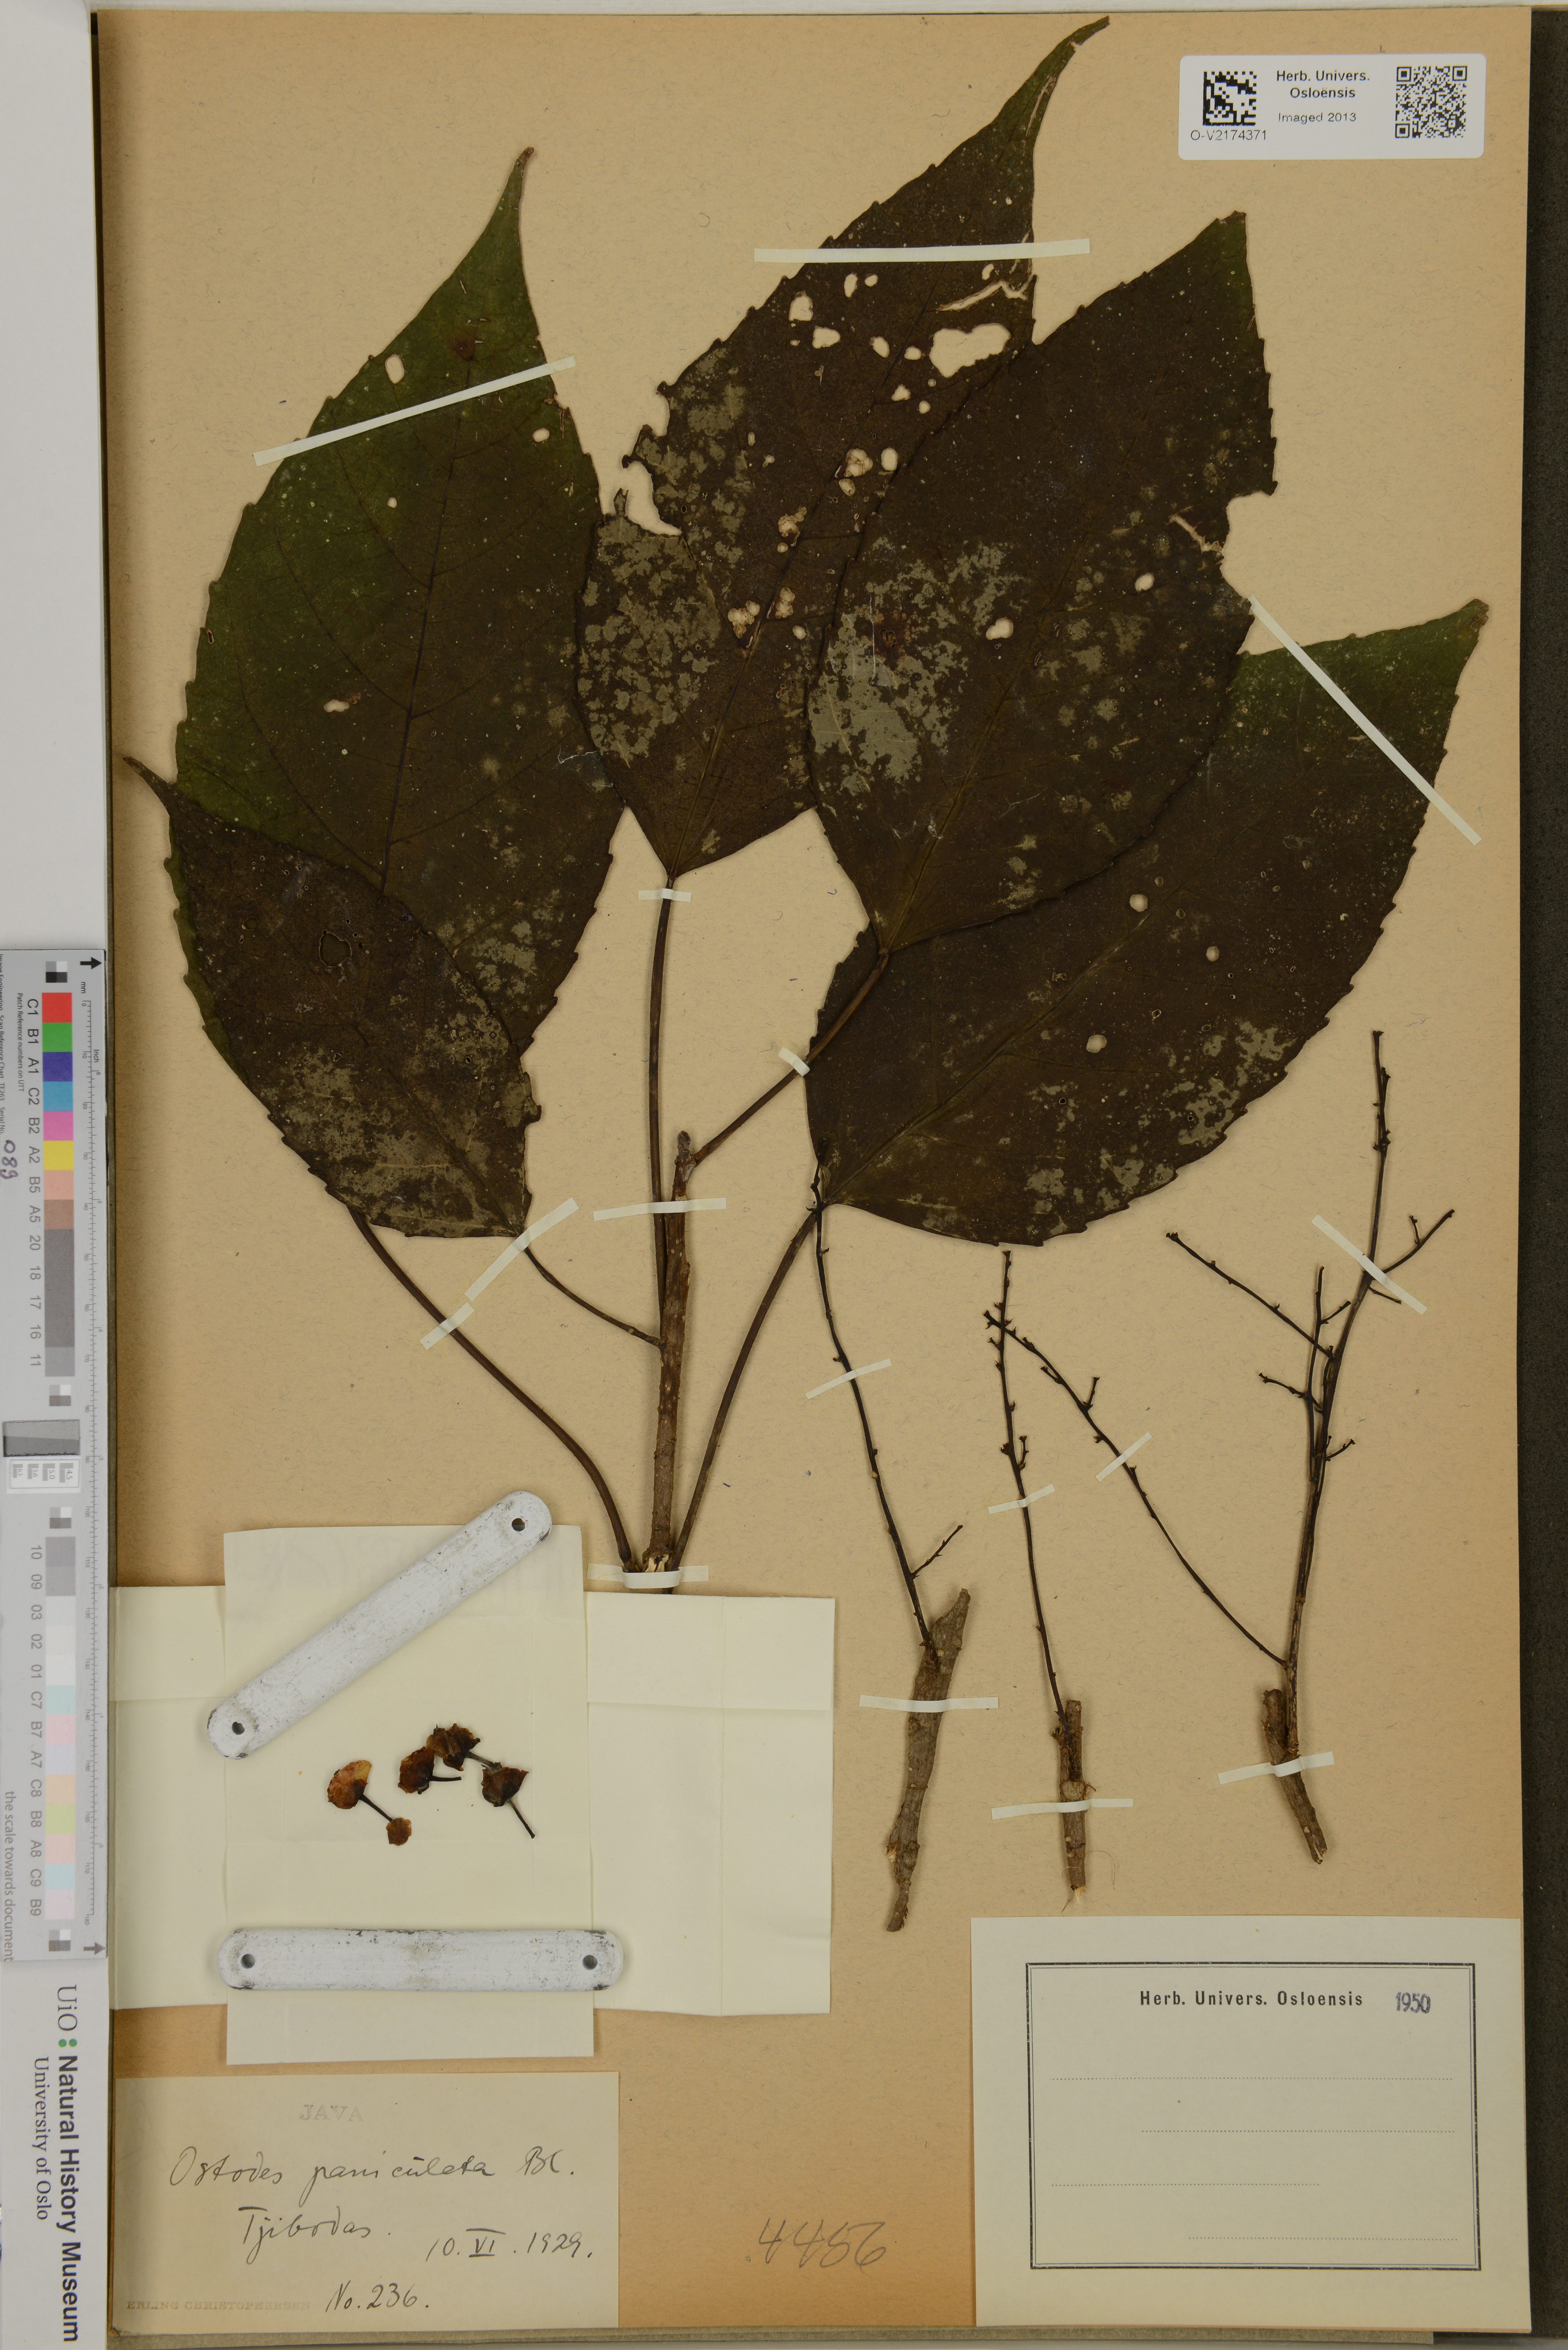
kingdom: Plantae
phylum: Tracheophyta
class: Magnoliopsida
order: Malpighiales
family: Euphorbiaceae
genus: Ostodes
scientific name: Ostodes paniculata
